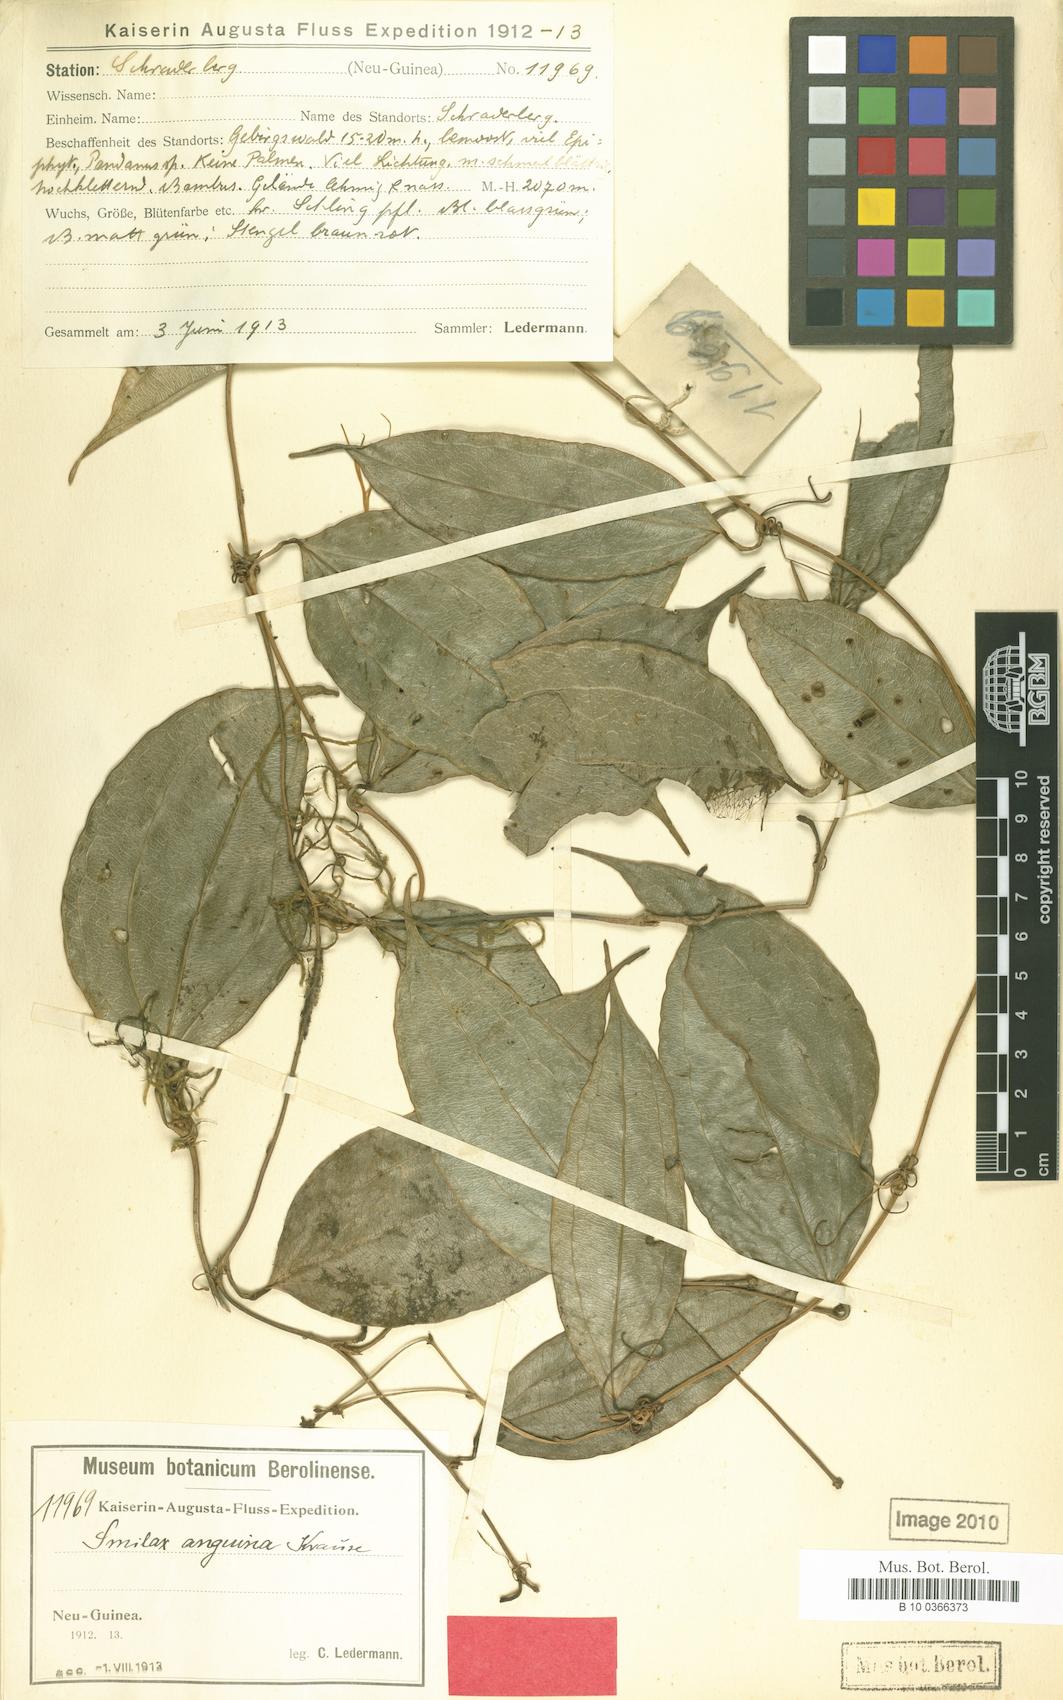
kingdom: Plantae
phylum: Tracheophyta
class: Liliopsida
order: Liliales
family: Smilacaceae
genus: Smilax
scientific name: Smilax anguina
